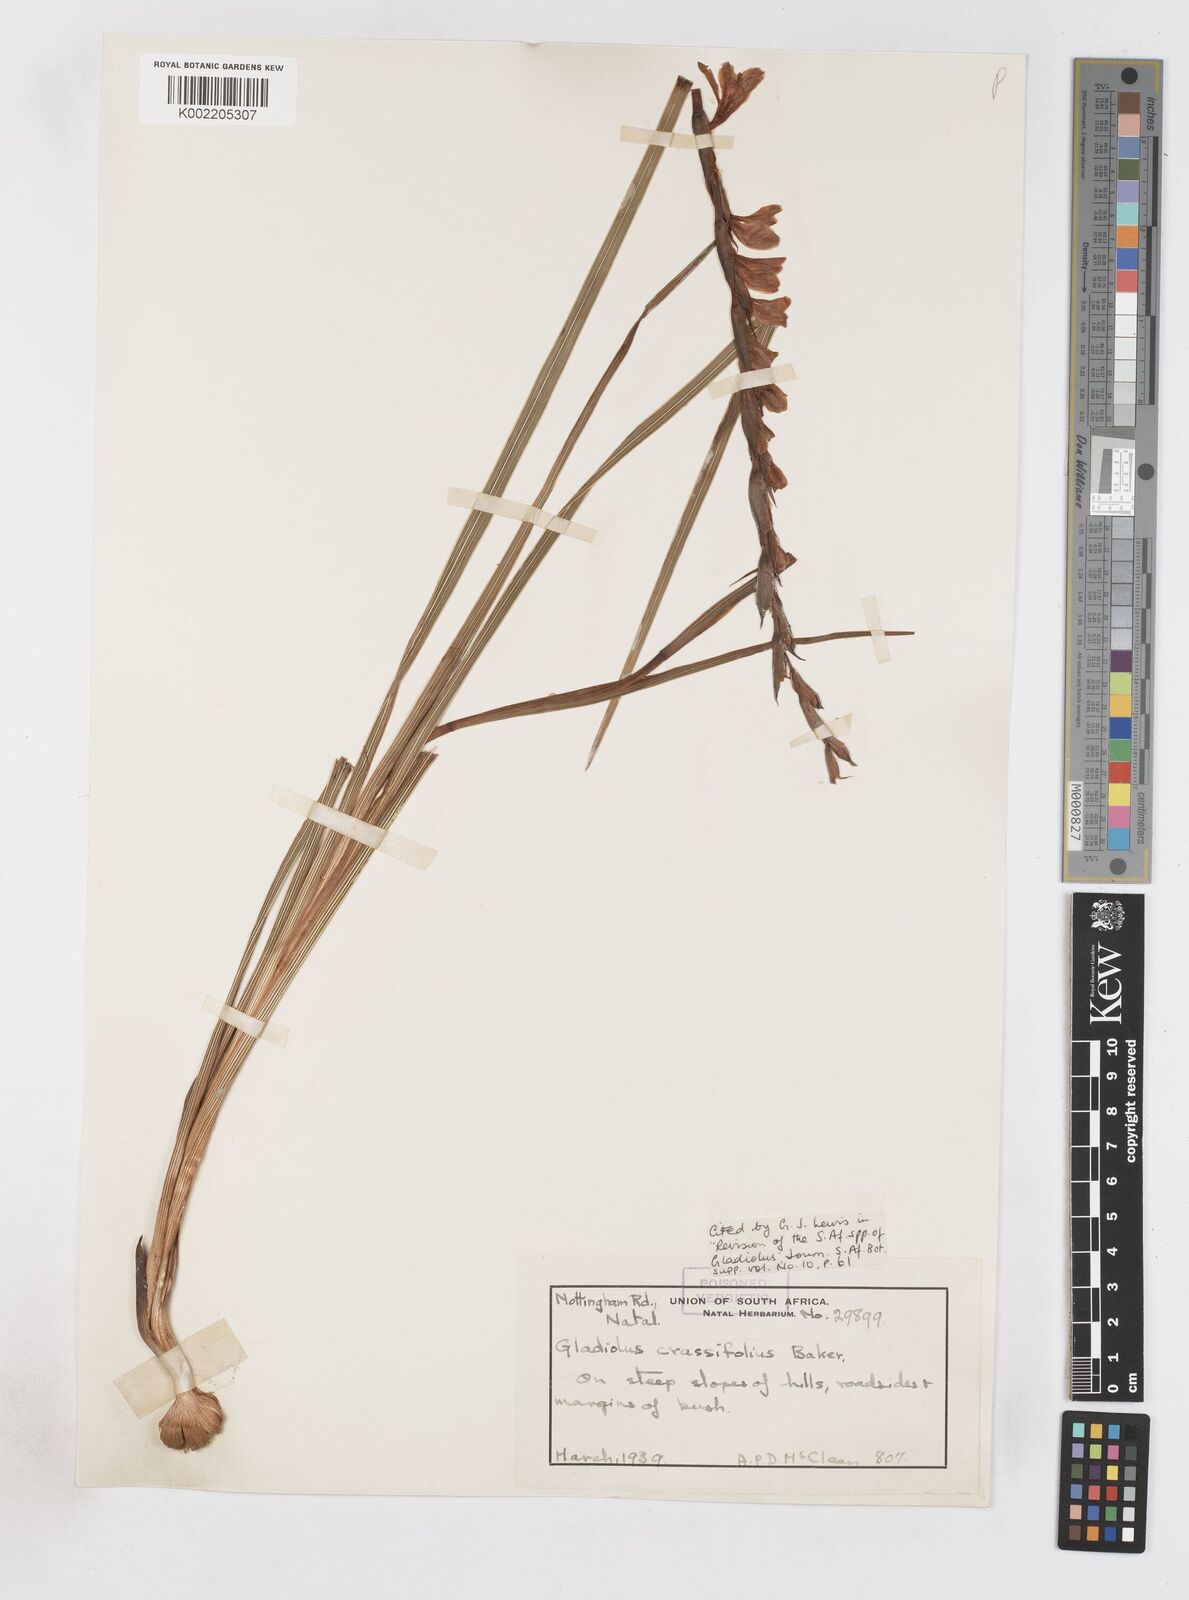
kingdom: Plantae
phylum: Tracheophyta
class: Liliopsida
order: Asparagales
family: Iridaceae
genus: Gladiolus
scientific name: Gladiolus crassifolius
